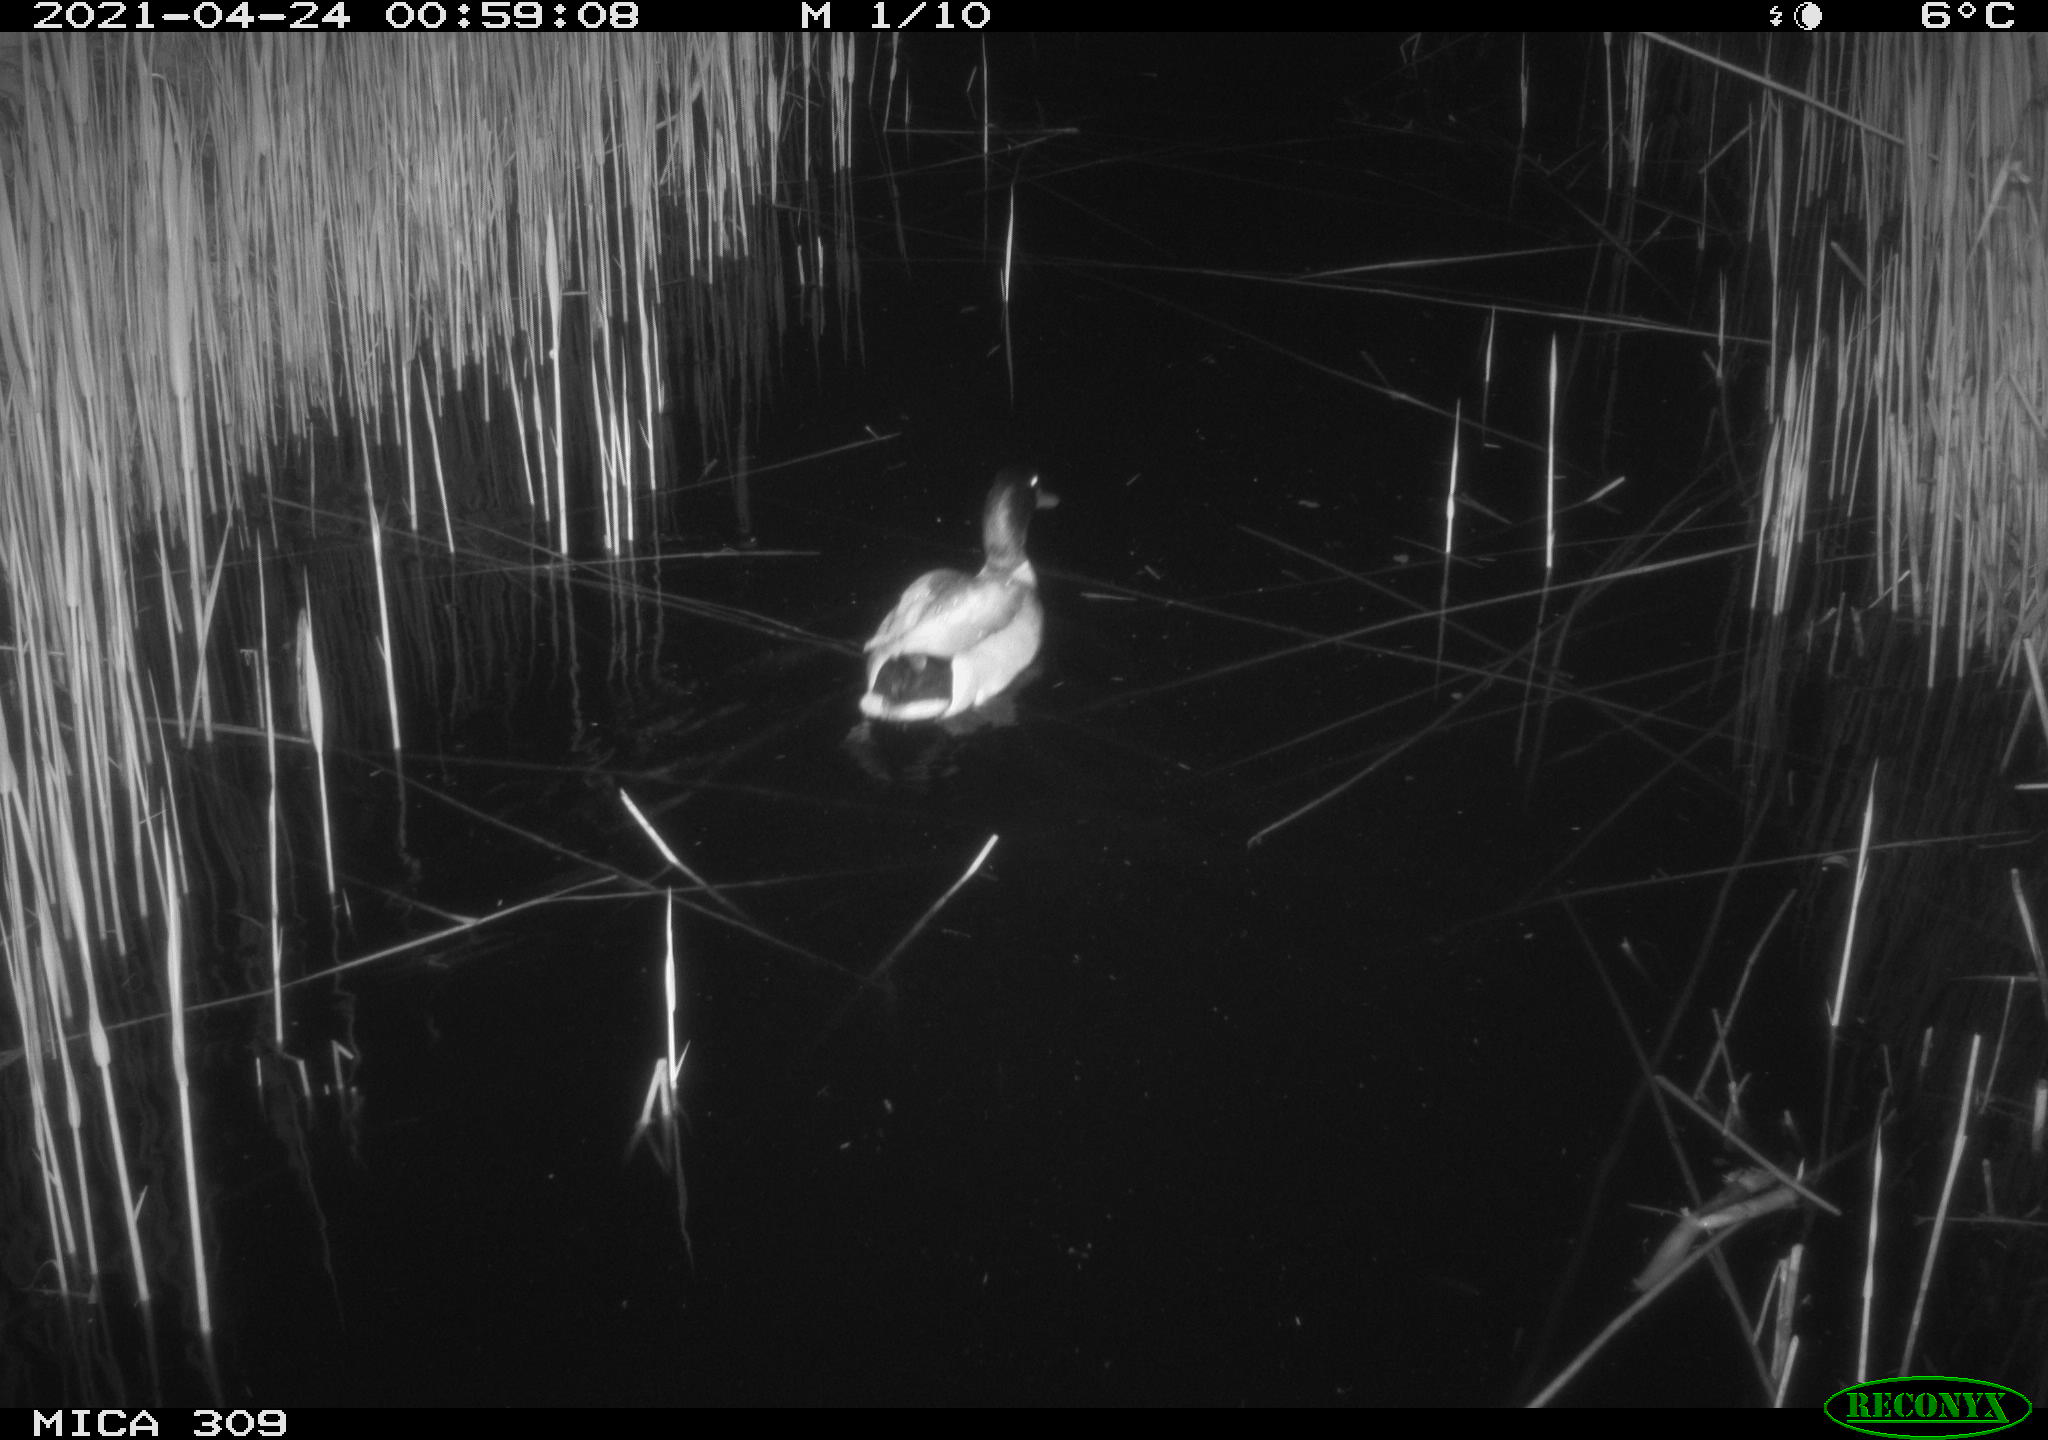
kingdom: Animalia
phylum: Chordata
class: Aves
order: Anseriformes
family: Anatidae
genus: Anas
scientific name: Anas platyrhynchos
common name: Mallard
